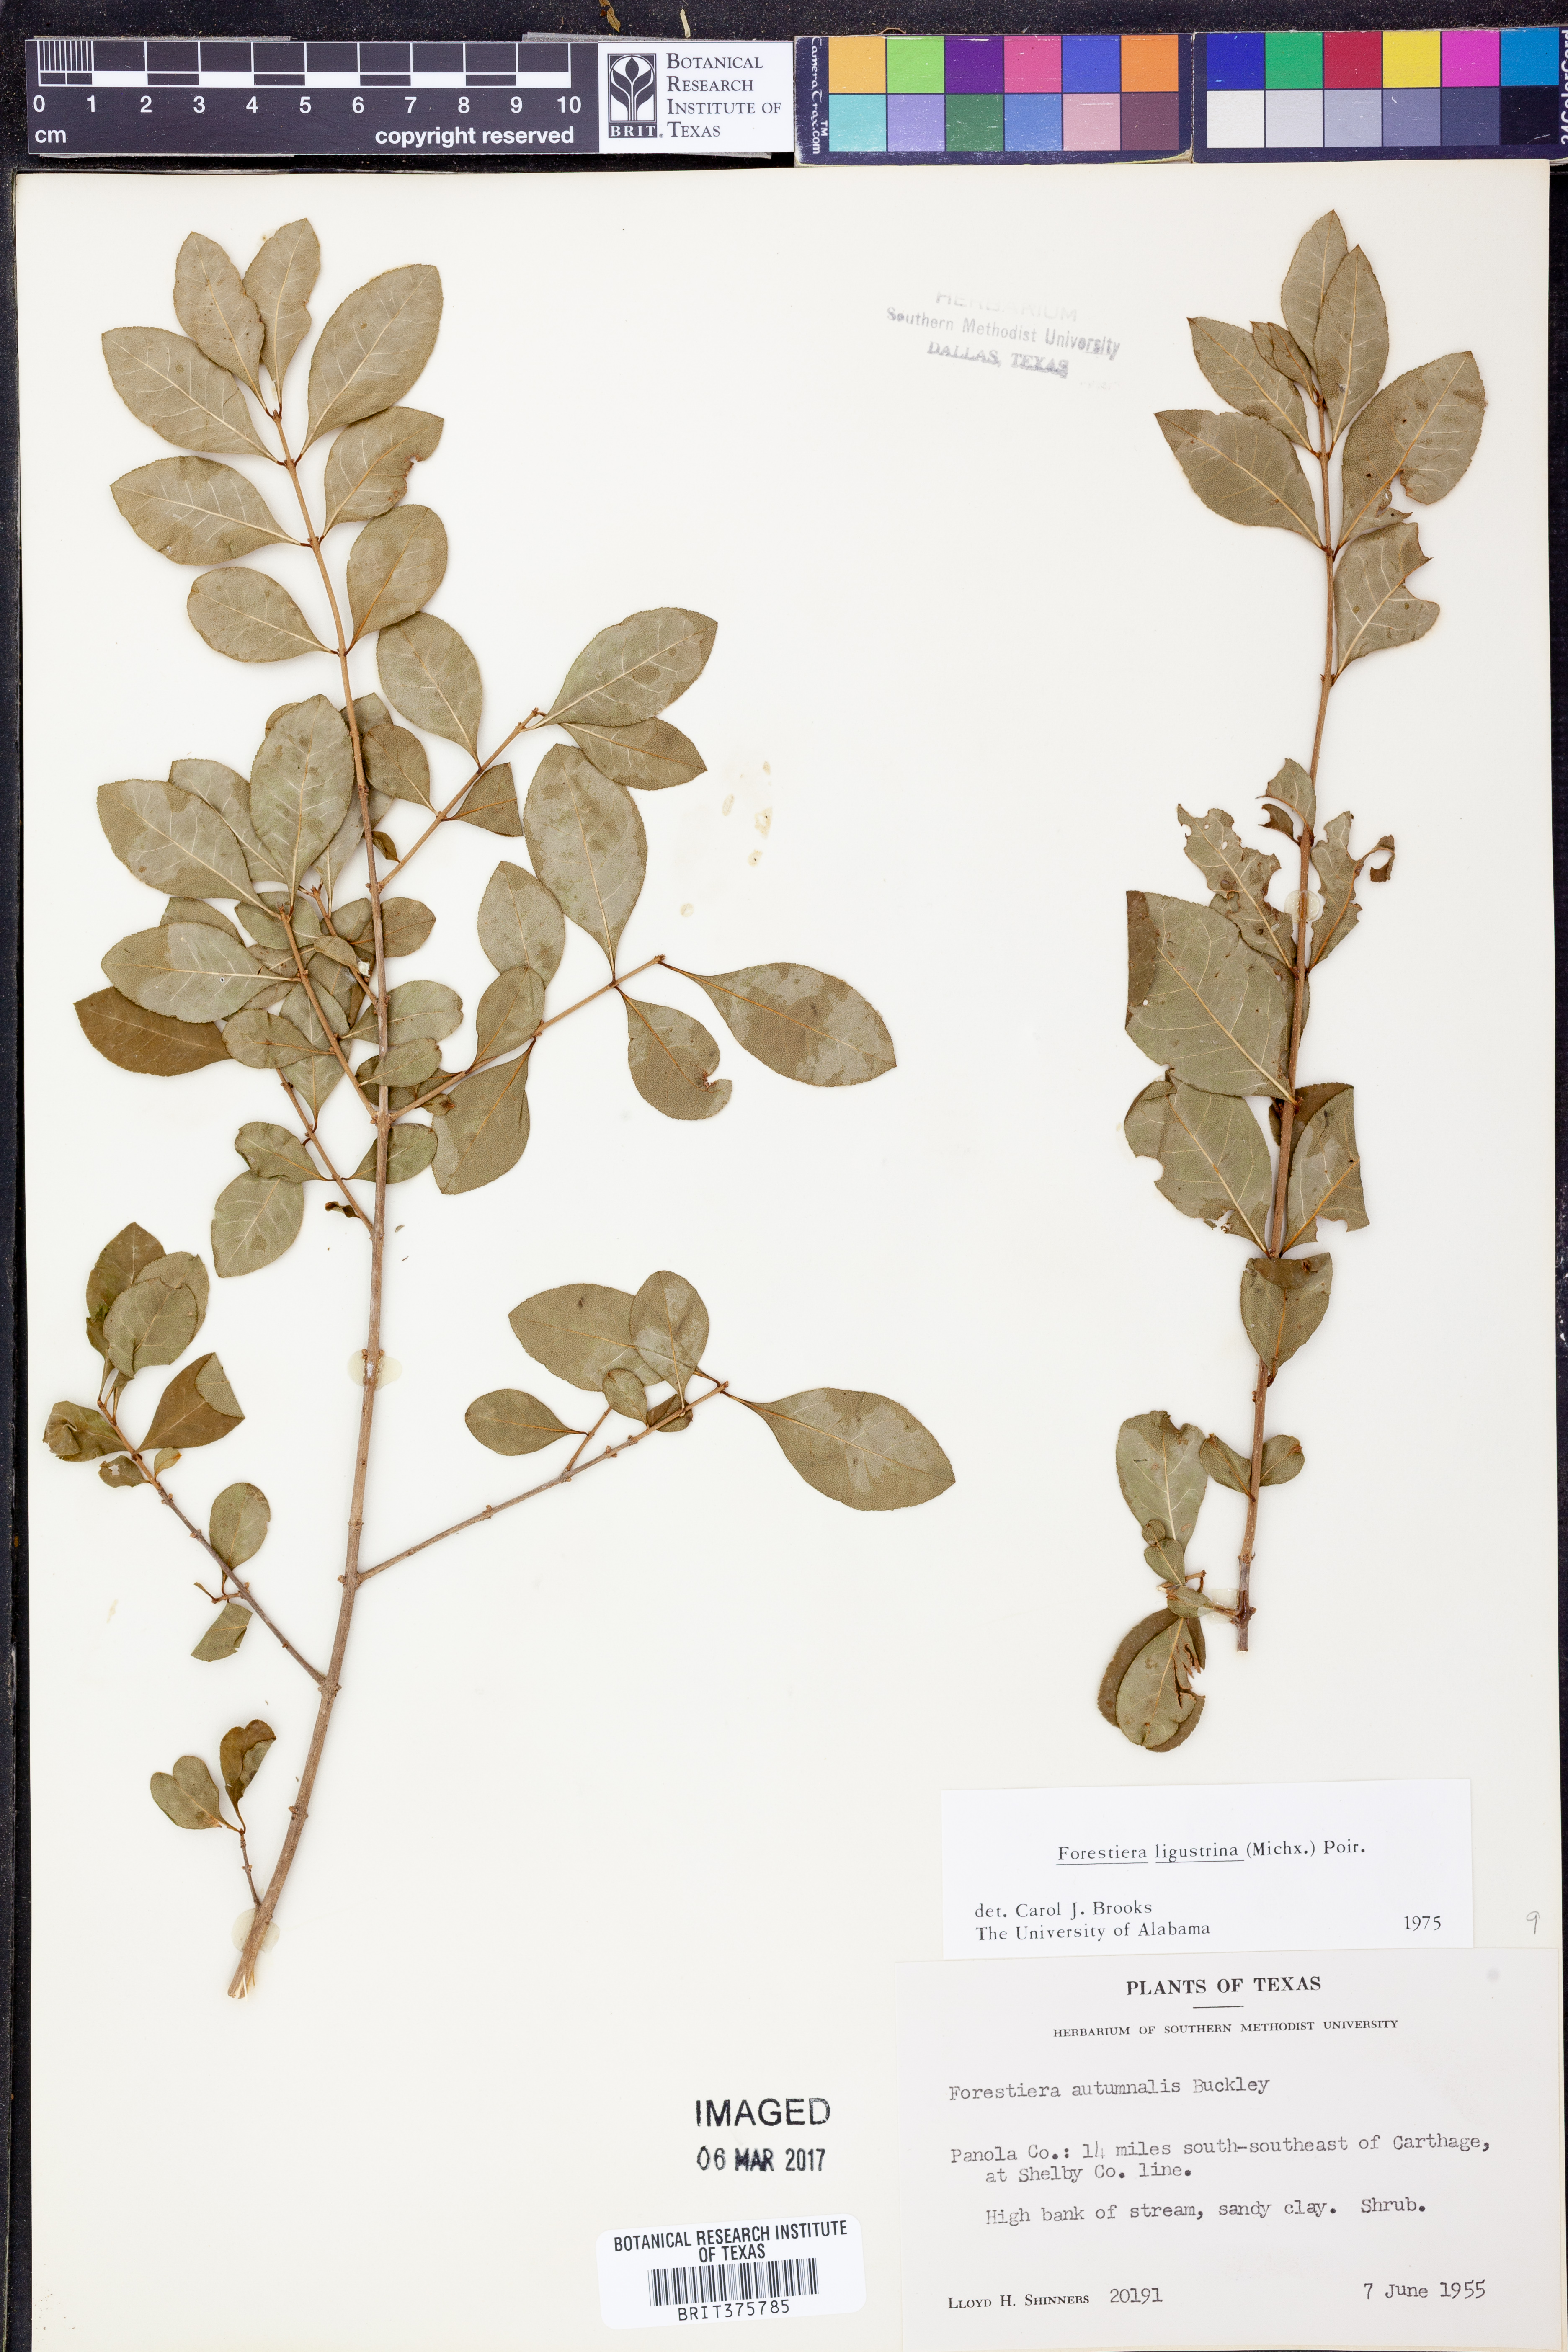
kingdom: Plantae
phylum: Tracheophyta
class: Magnoliopsida
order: Lamiales
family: Oleaceae
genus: Forestiera
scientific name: Forestiera ligustrina
